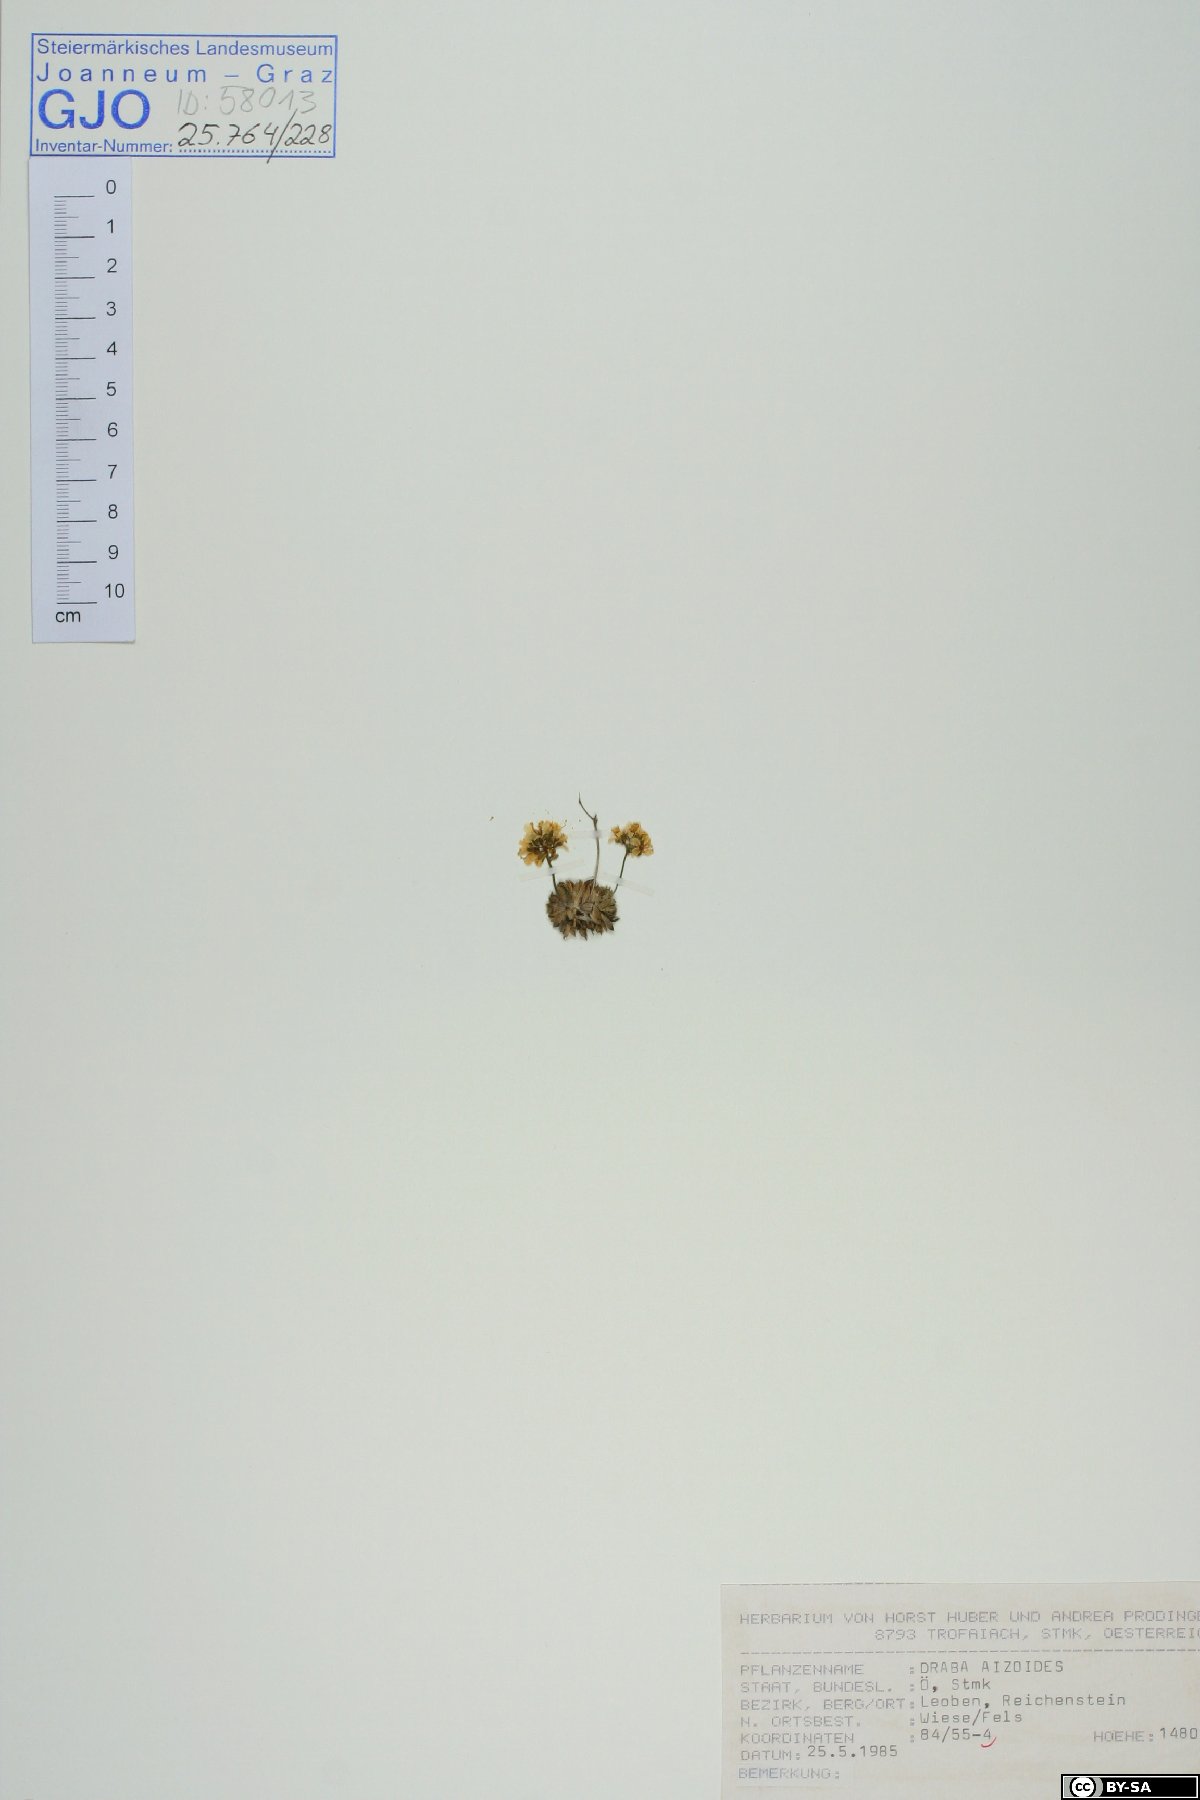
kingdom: Plantae
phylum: Tracheophyta
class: Magnoliopsida
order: Brassicales
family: Brassicaceae
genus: Draba
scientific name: Draba aizoides
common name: Yellow whitlowgrass
